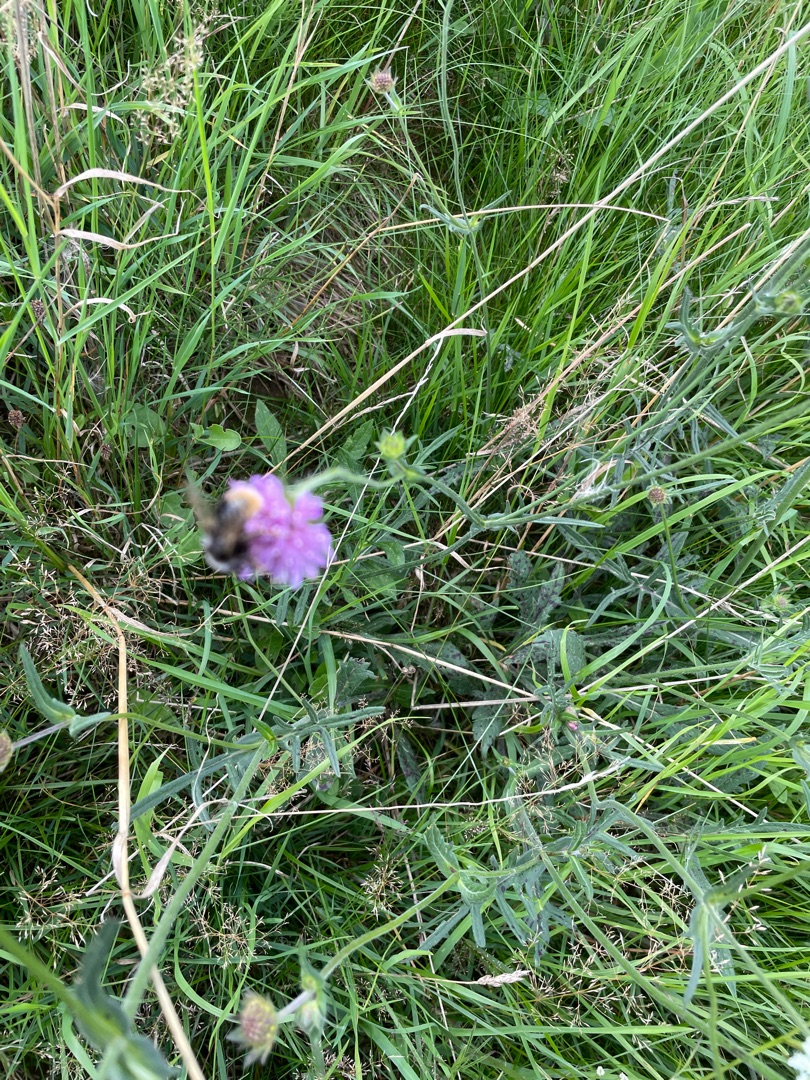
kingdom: Plantae
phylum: Tracheophyta
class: Magnoliopsida
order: Dipsacales
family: Caprifoliaceae
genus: Knautia
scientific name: Knautia arvensis
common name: Blåhat
